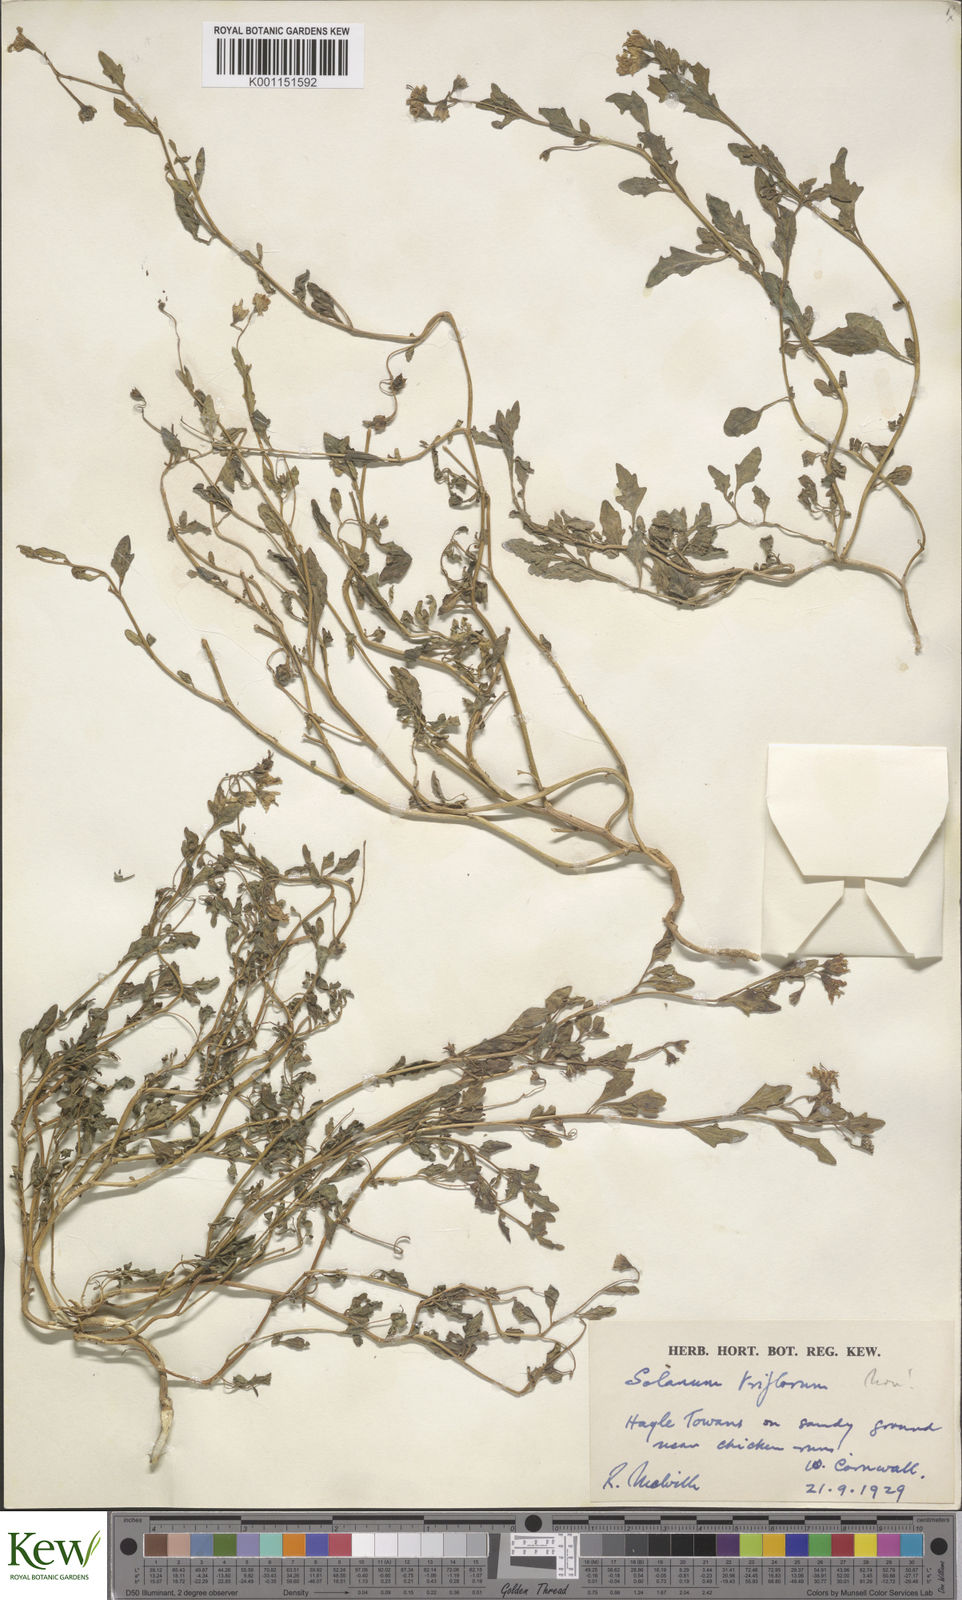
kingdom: Plantae
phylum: Tracheophyta
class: Magnoliopsida
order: Solanales
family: Solanaceae
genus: Solanum
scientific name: Solanum pygmaeum
